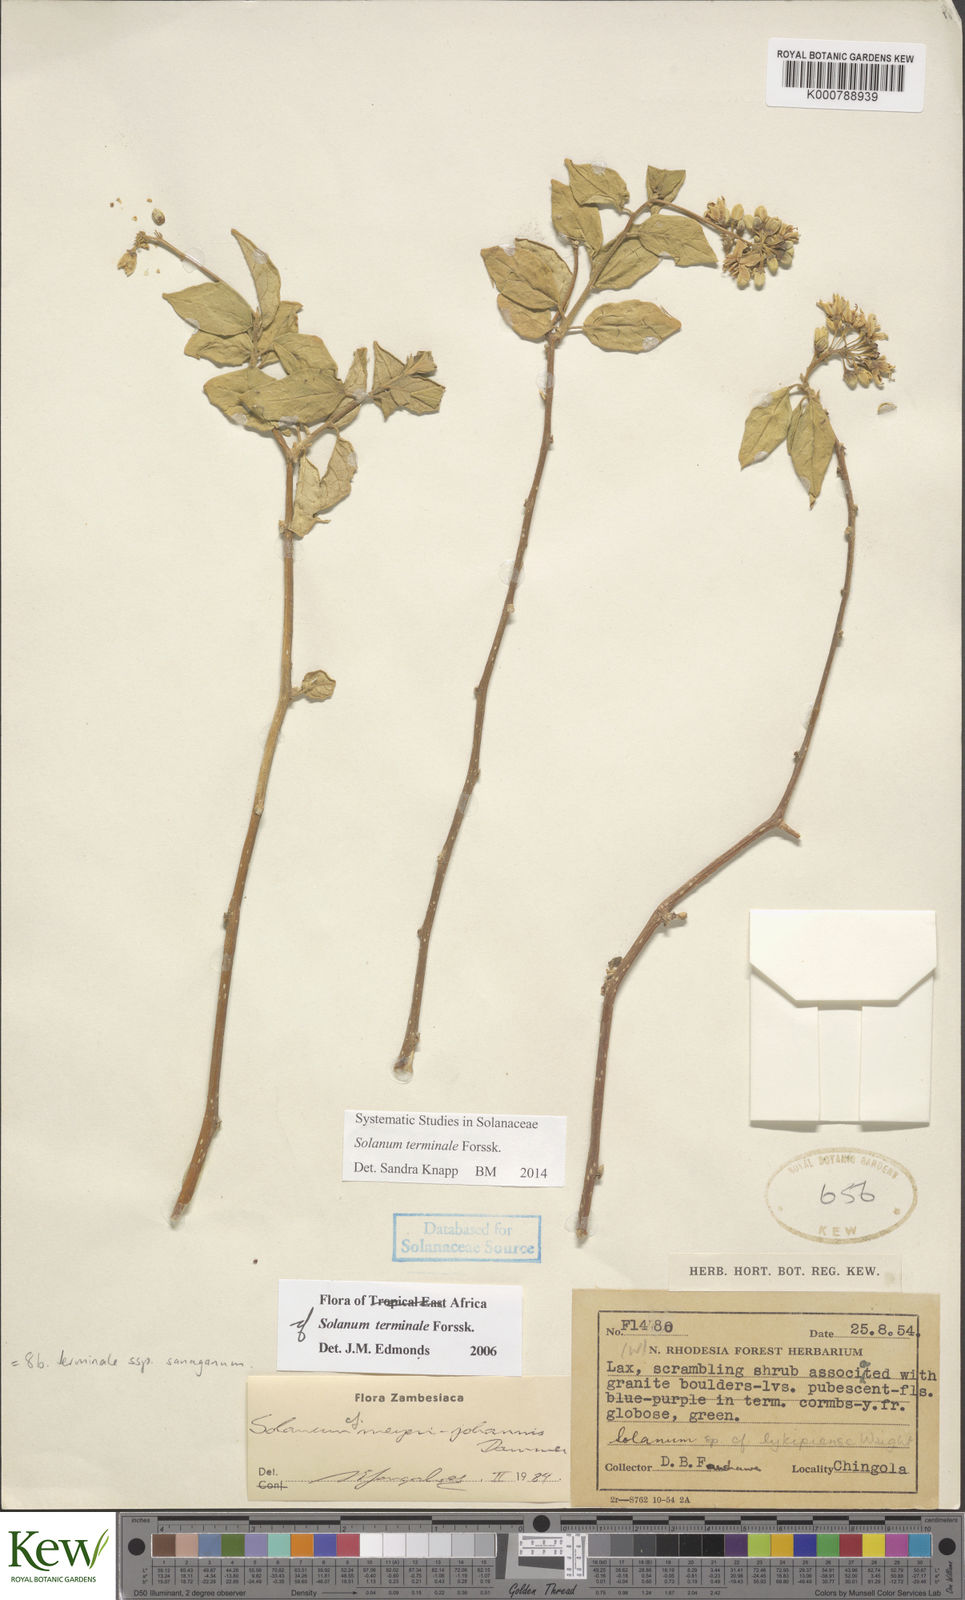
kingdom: Plantae
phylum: Tracheophyta
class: Magnoliopsida
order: Solanales
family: Solanaceae
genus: Solanum
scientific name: Solanum terminale
